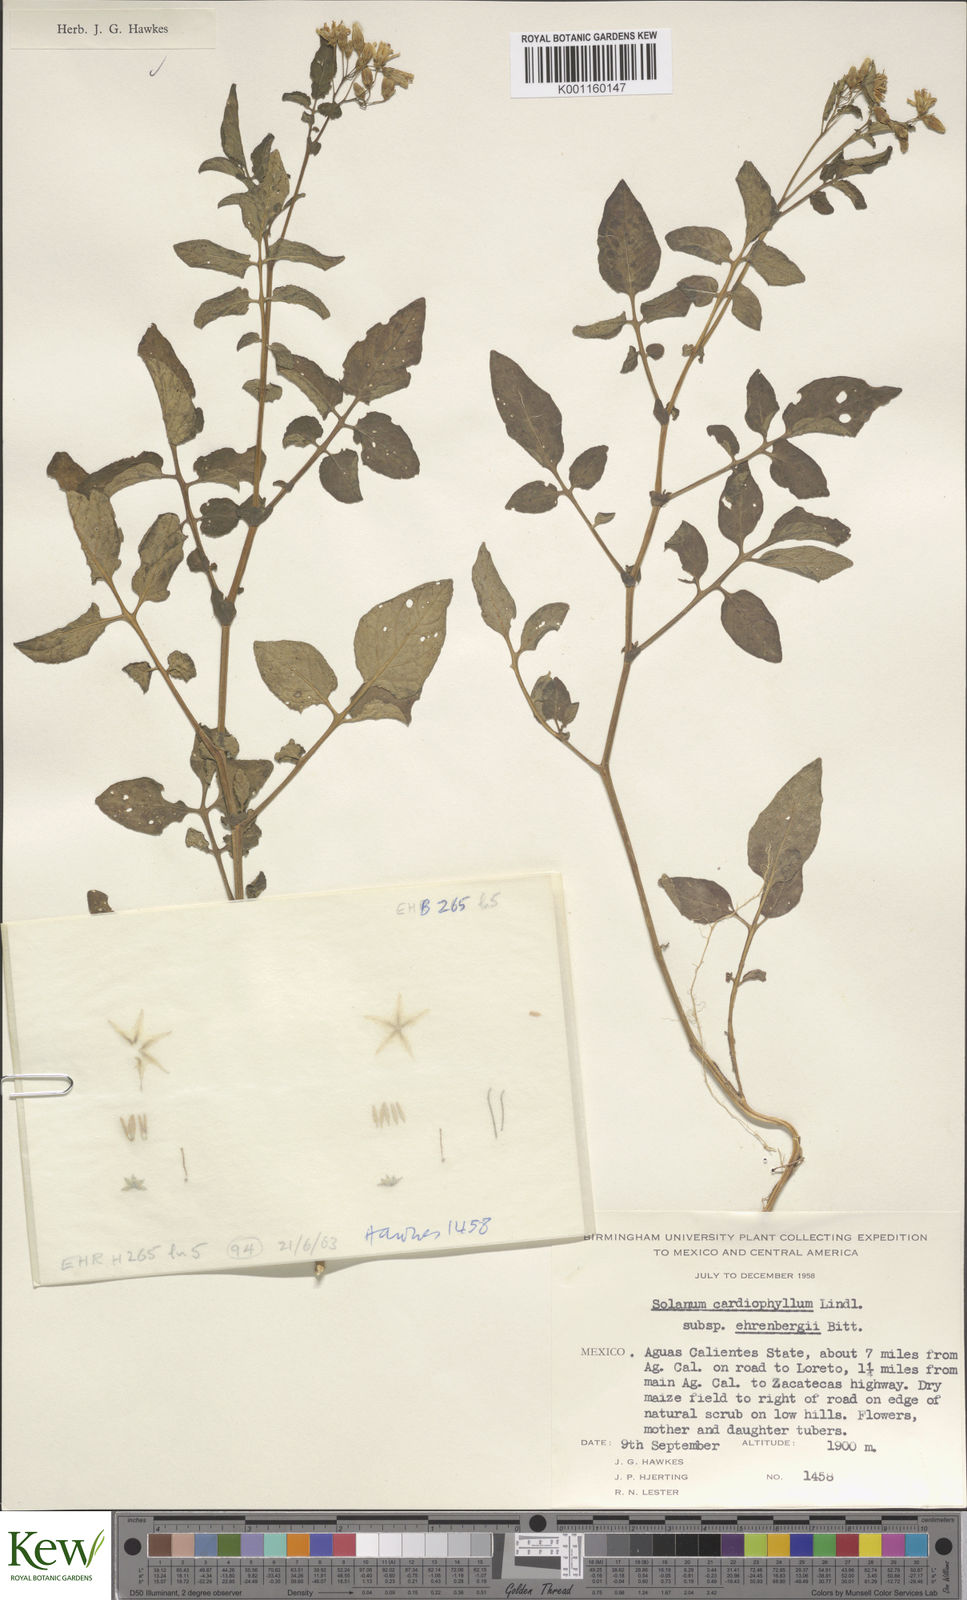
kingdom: Plantae
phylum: Tracheophyta
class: Magnoliopsida
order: Solanales
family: Solanaceae
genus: Solanum
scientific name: Solanum cardiophyllum
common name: Heartleaf horsenettle
